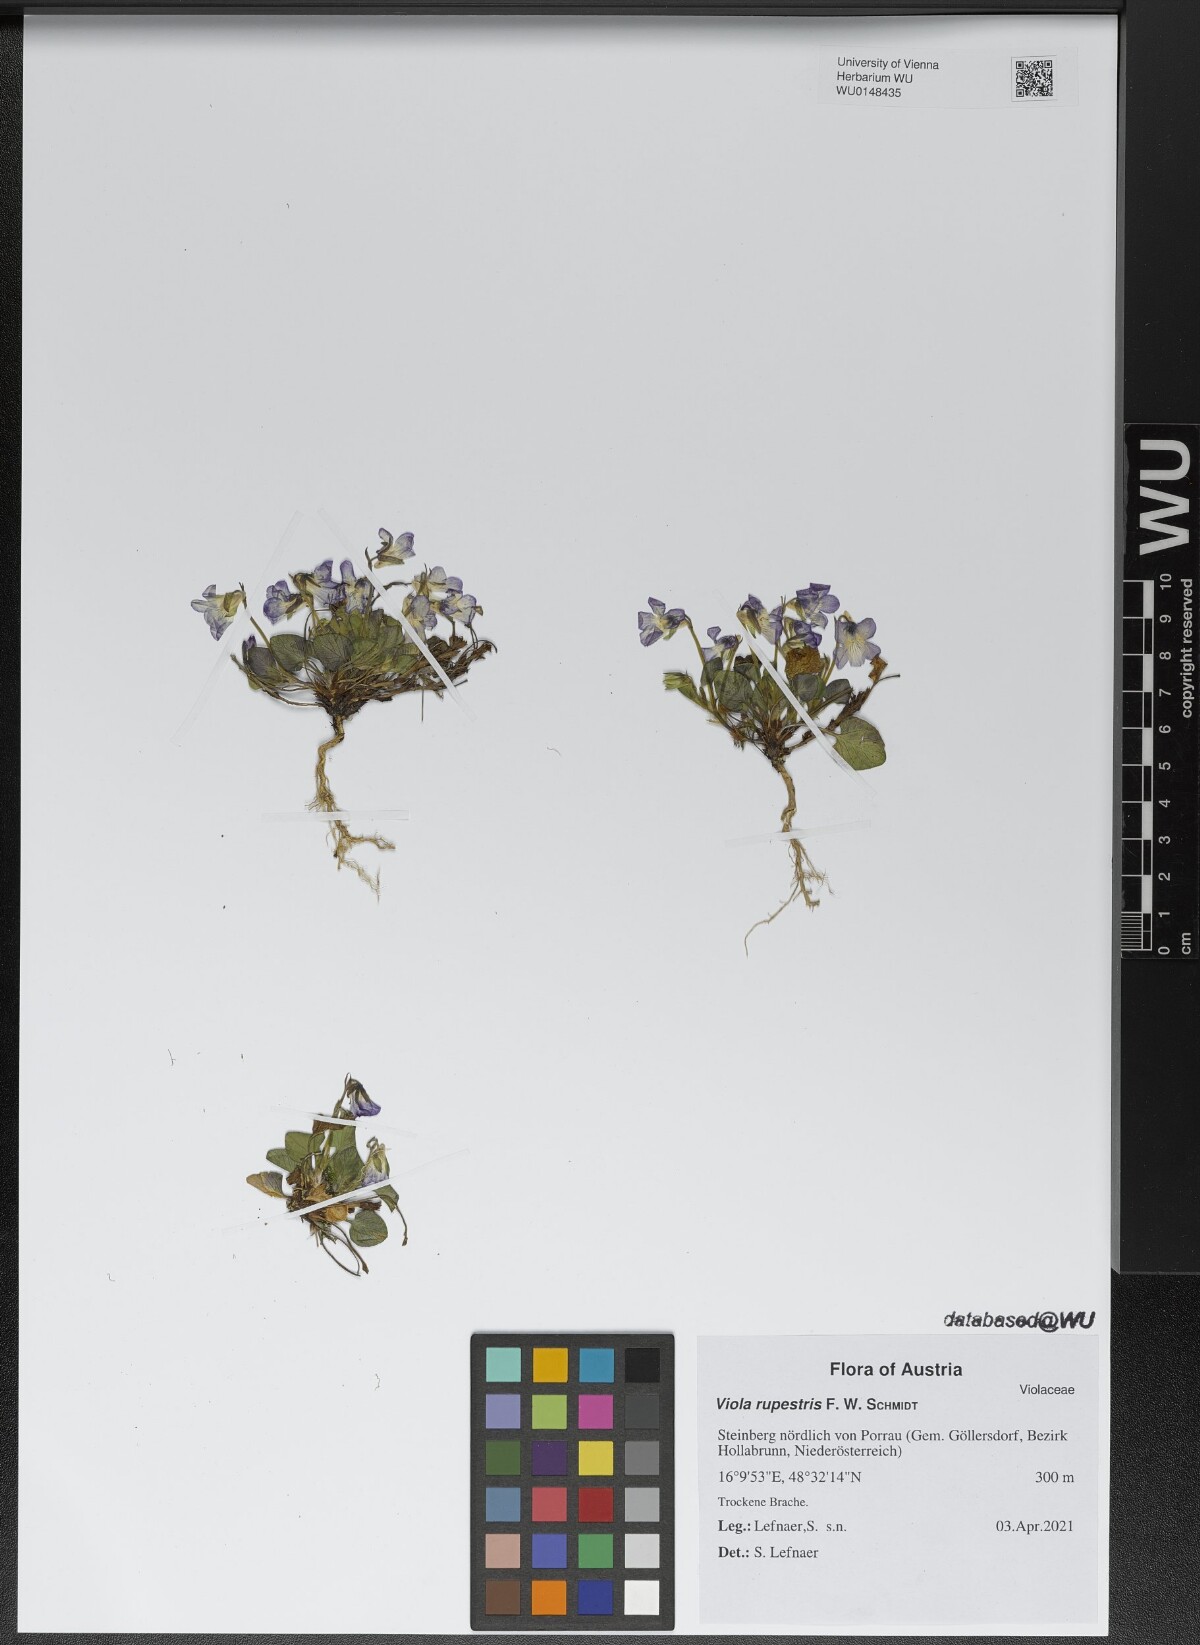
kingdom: Plantae
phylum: Tracheophyta
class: Magnoliopsida
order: Malpighiales
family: Violaceae
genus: Viola
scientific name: Viola rupestris
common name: Teesdale violet
